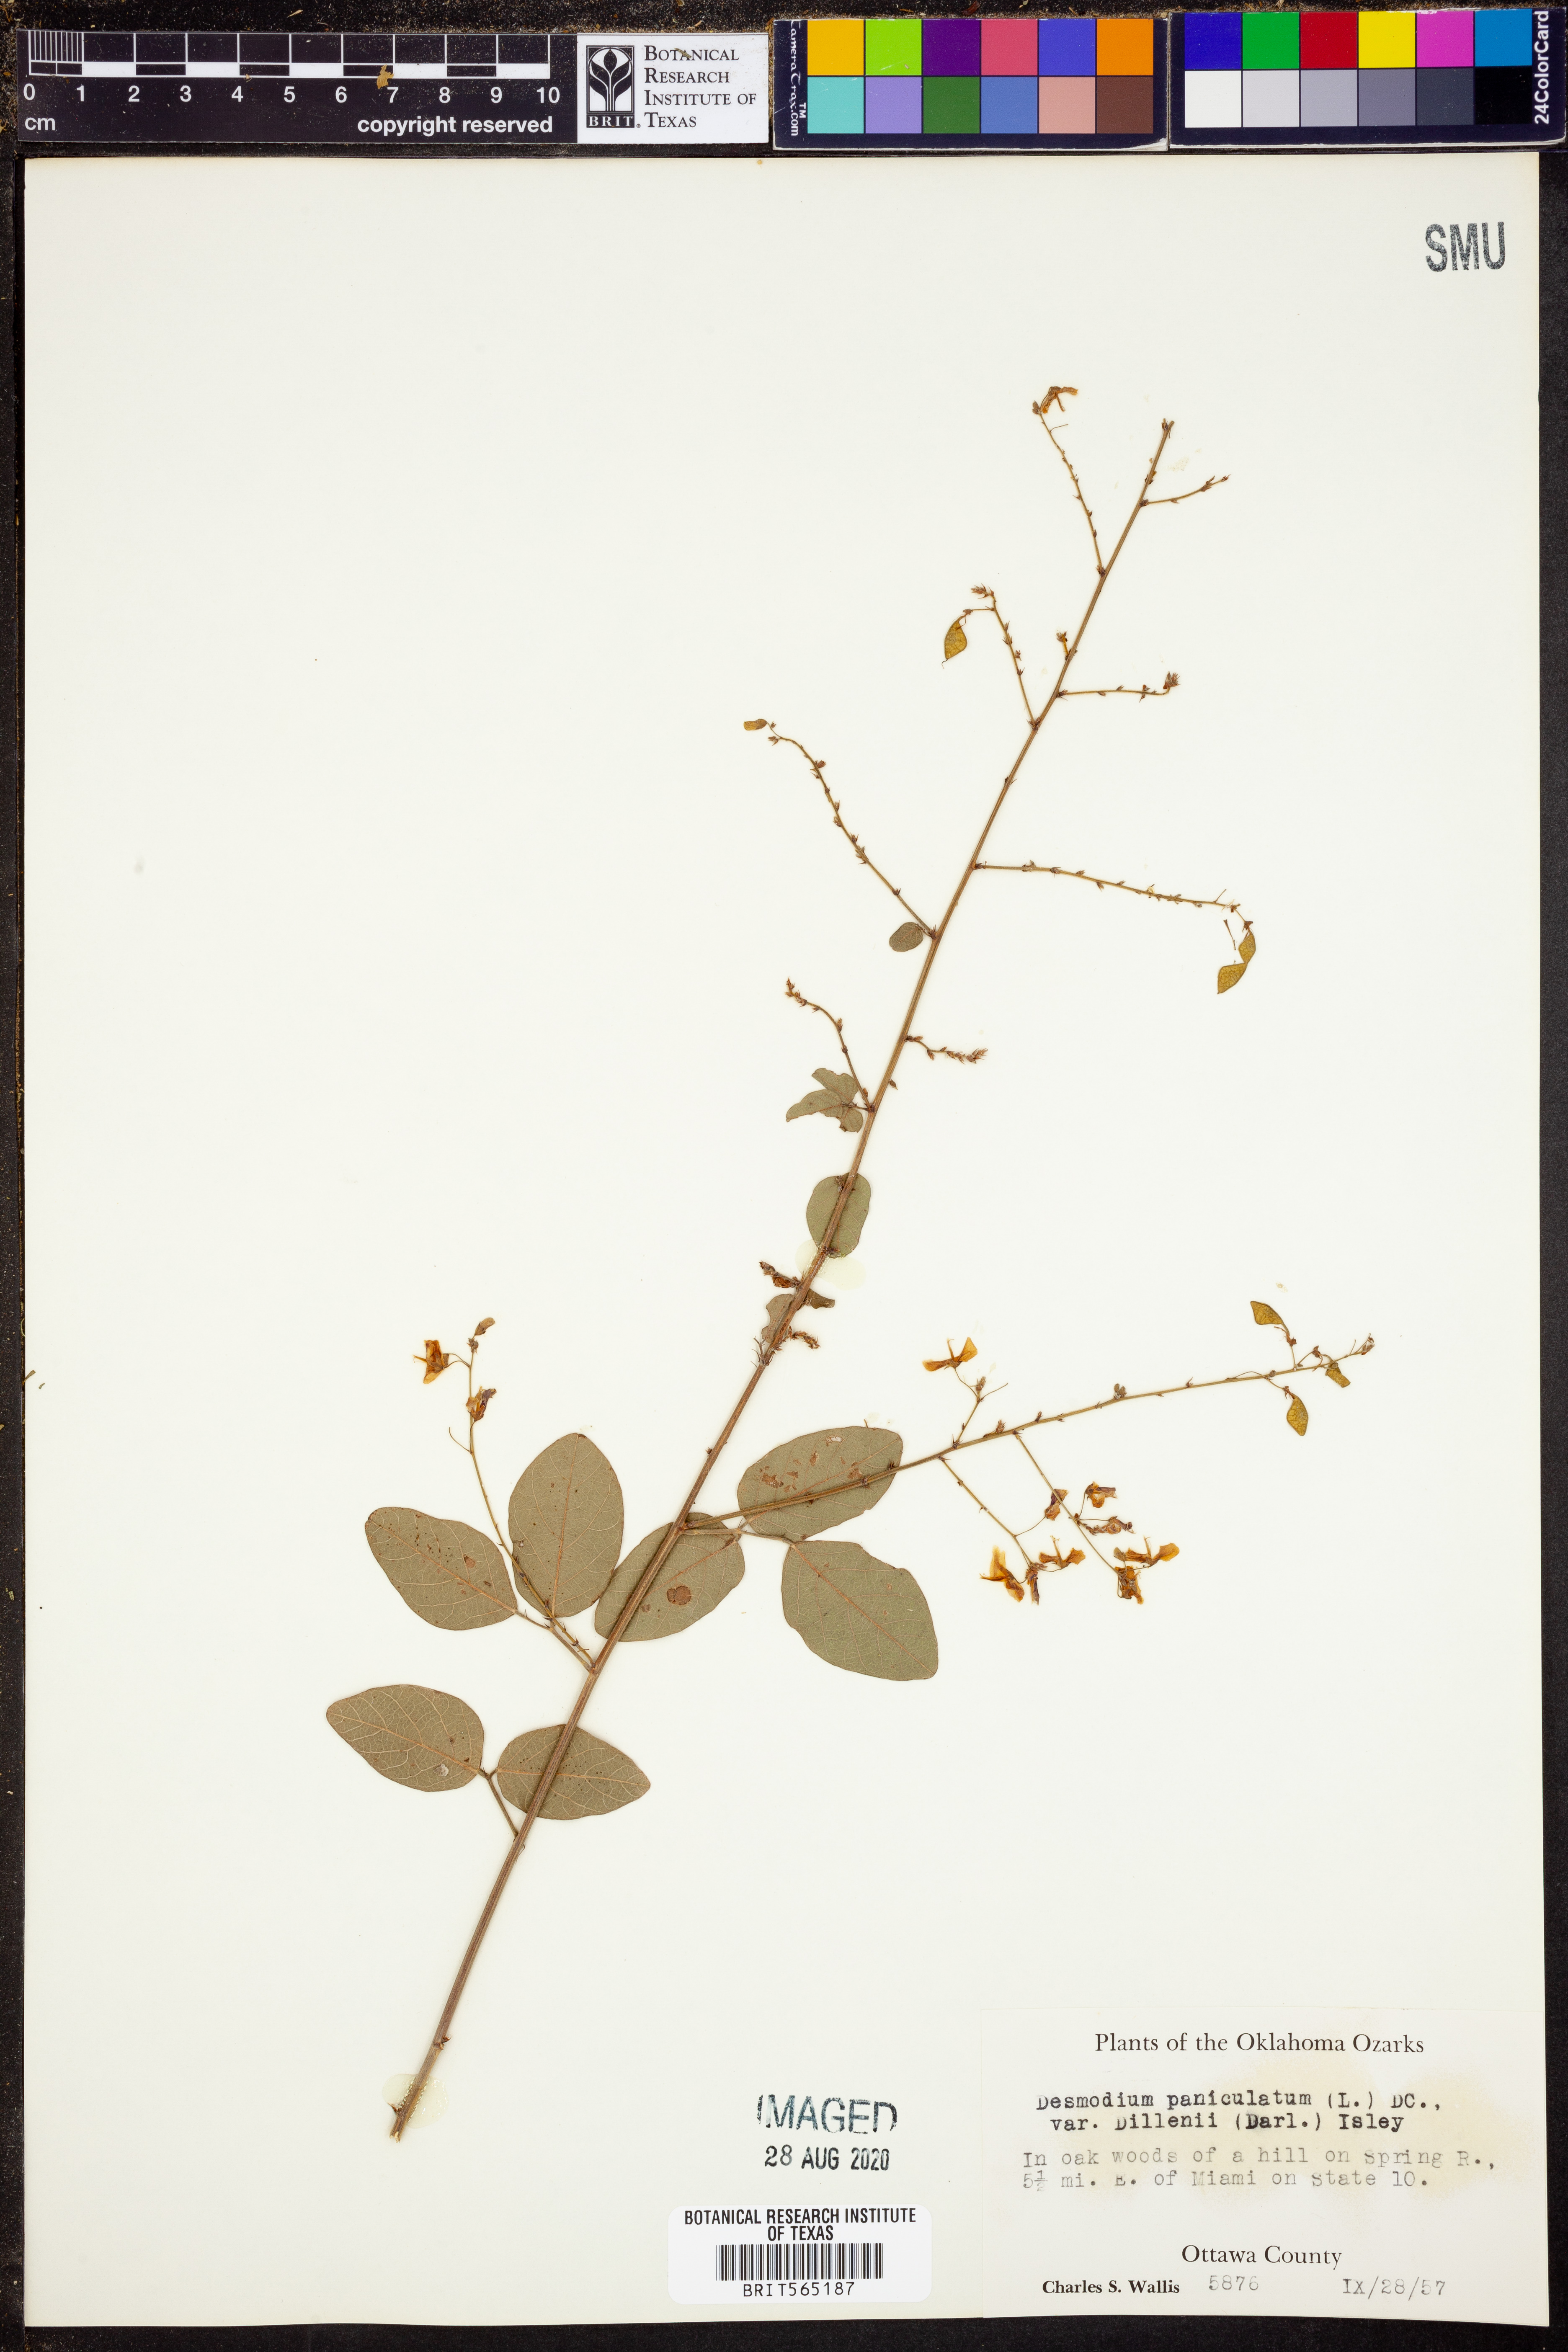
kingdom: Plantae
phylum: Tracheophyta
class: Magnoliopsida
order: Fabales
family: Fabaceae
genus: Desmodium
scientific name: Desmodium perplexum
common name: Perplexed tick trefoil
